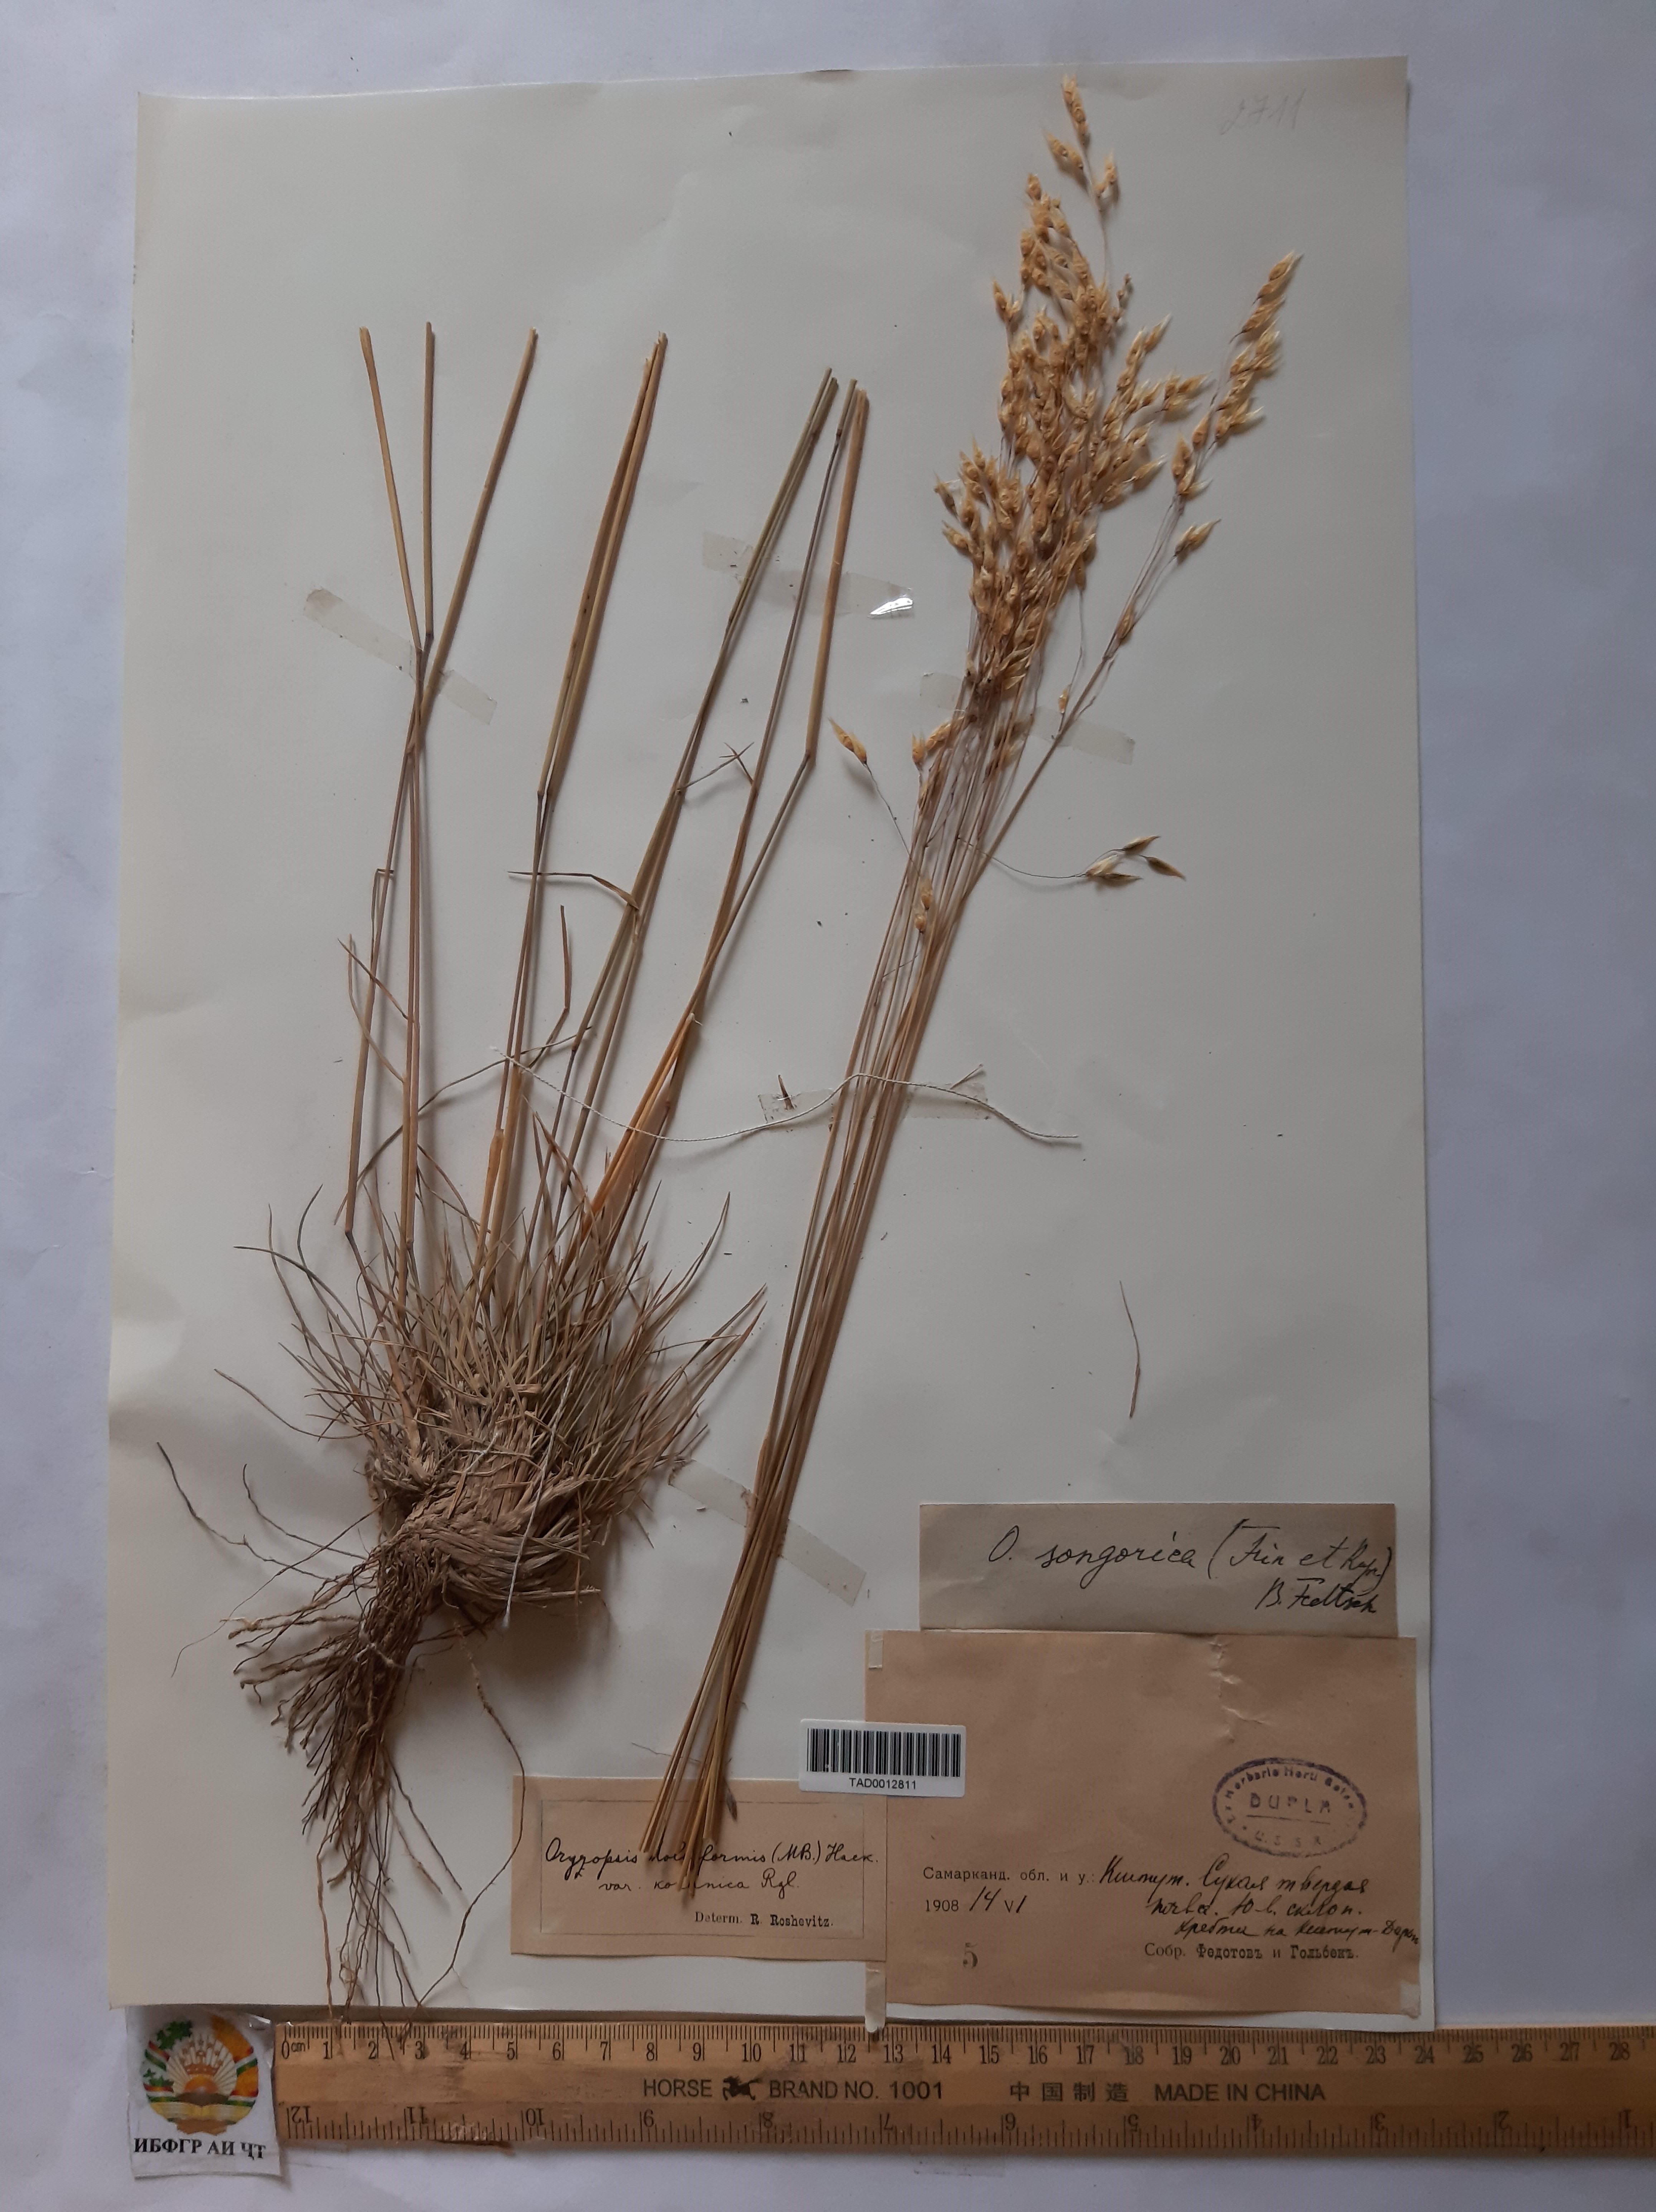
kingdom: Plantae
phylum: Tracheophyta
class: Liliopsida
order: Poales
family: Poaceae
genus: Piptatherum
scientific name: Piptatherum songaricum
